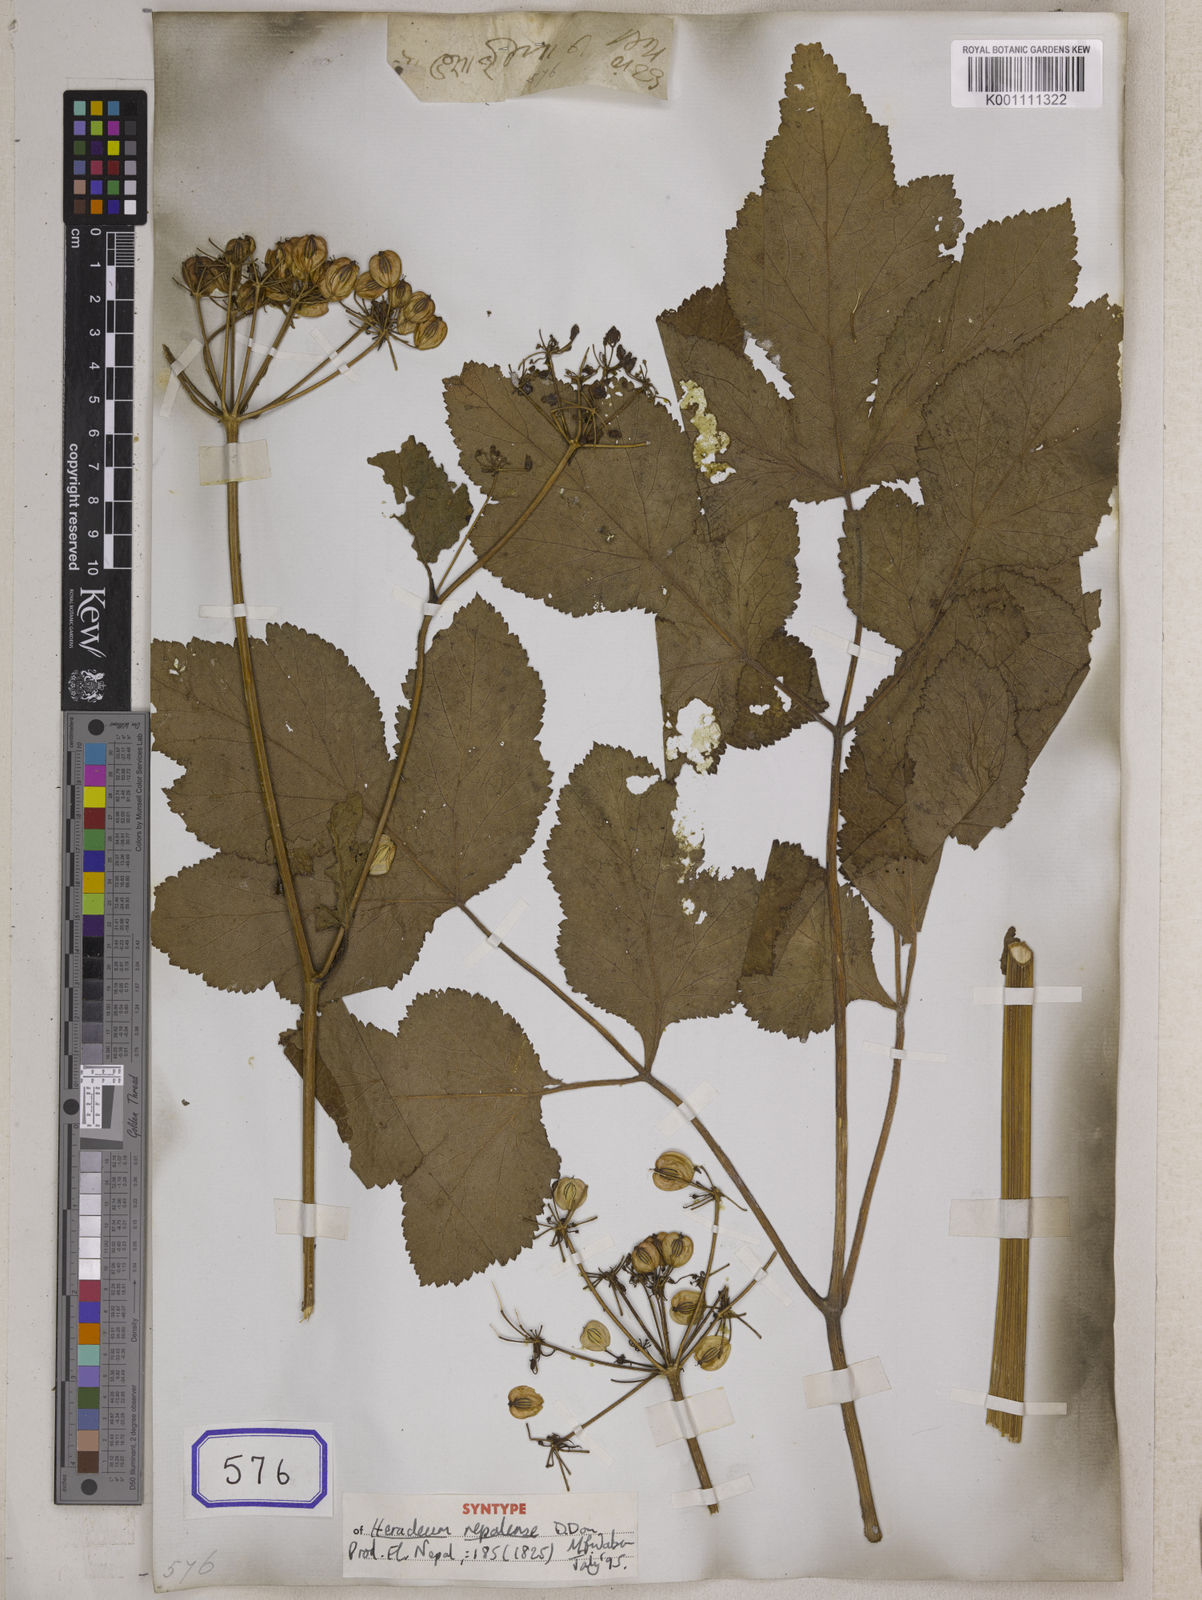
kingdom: Plantae
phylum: Tracheophyta
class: Magnoliopsida
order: Apiales
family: Apiaceae
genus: Tetrataenium
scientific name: Tetrataenium nepalense
